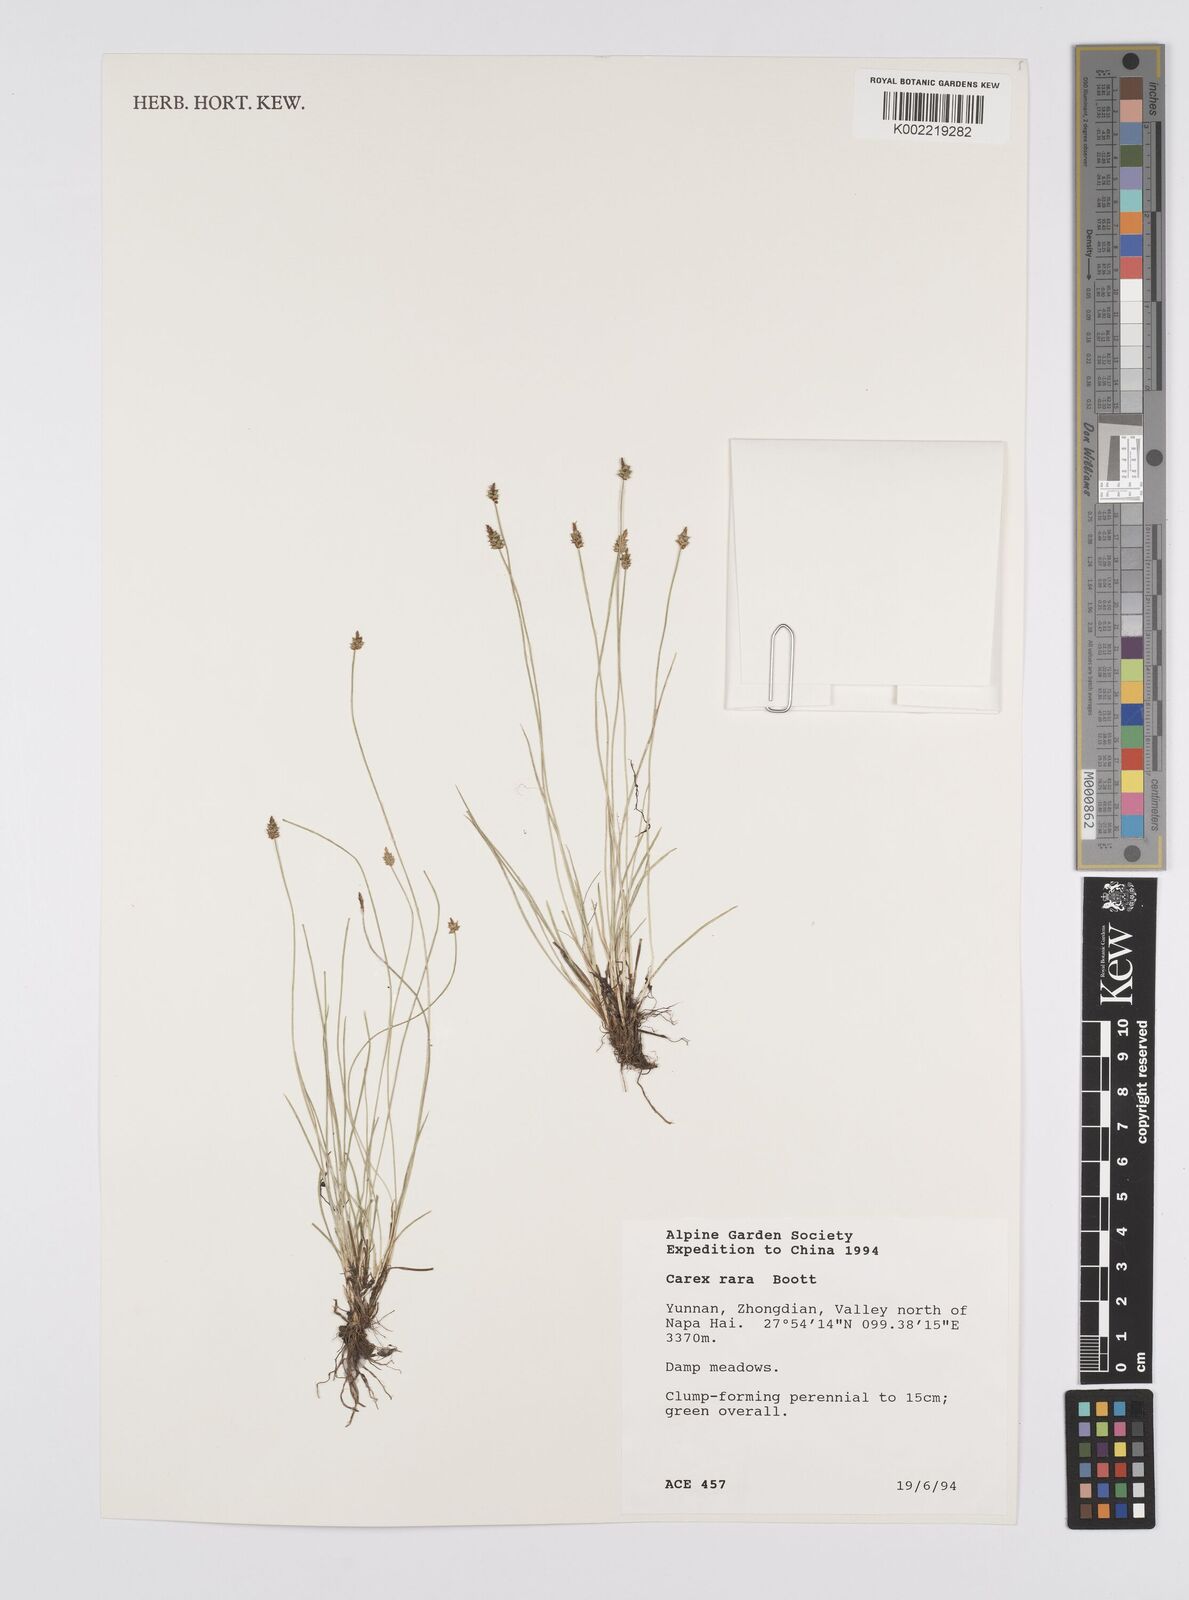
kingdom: Plantae
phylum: Tracheophyta
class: Liliopsida
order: Poales
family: Cyperaceae
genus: Carex
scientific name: Carex rara
